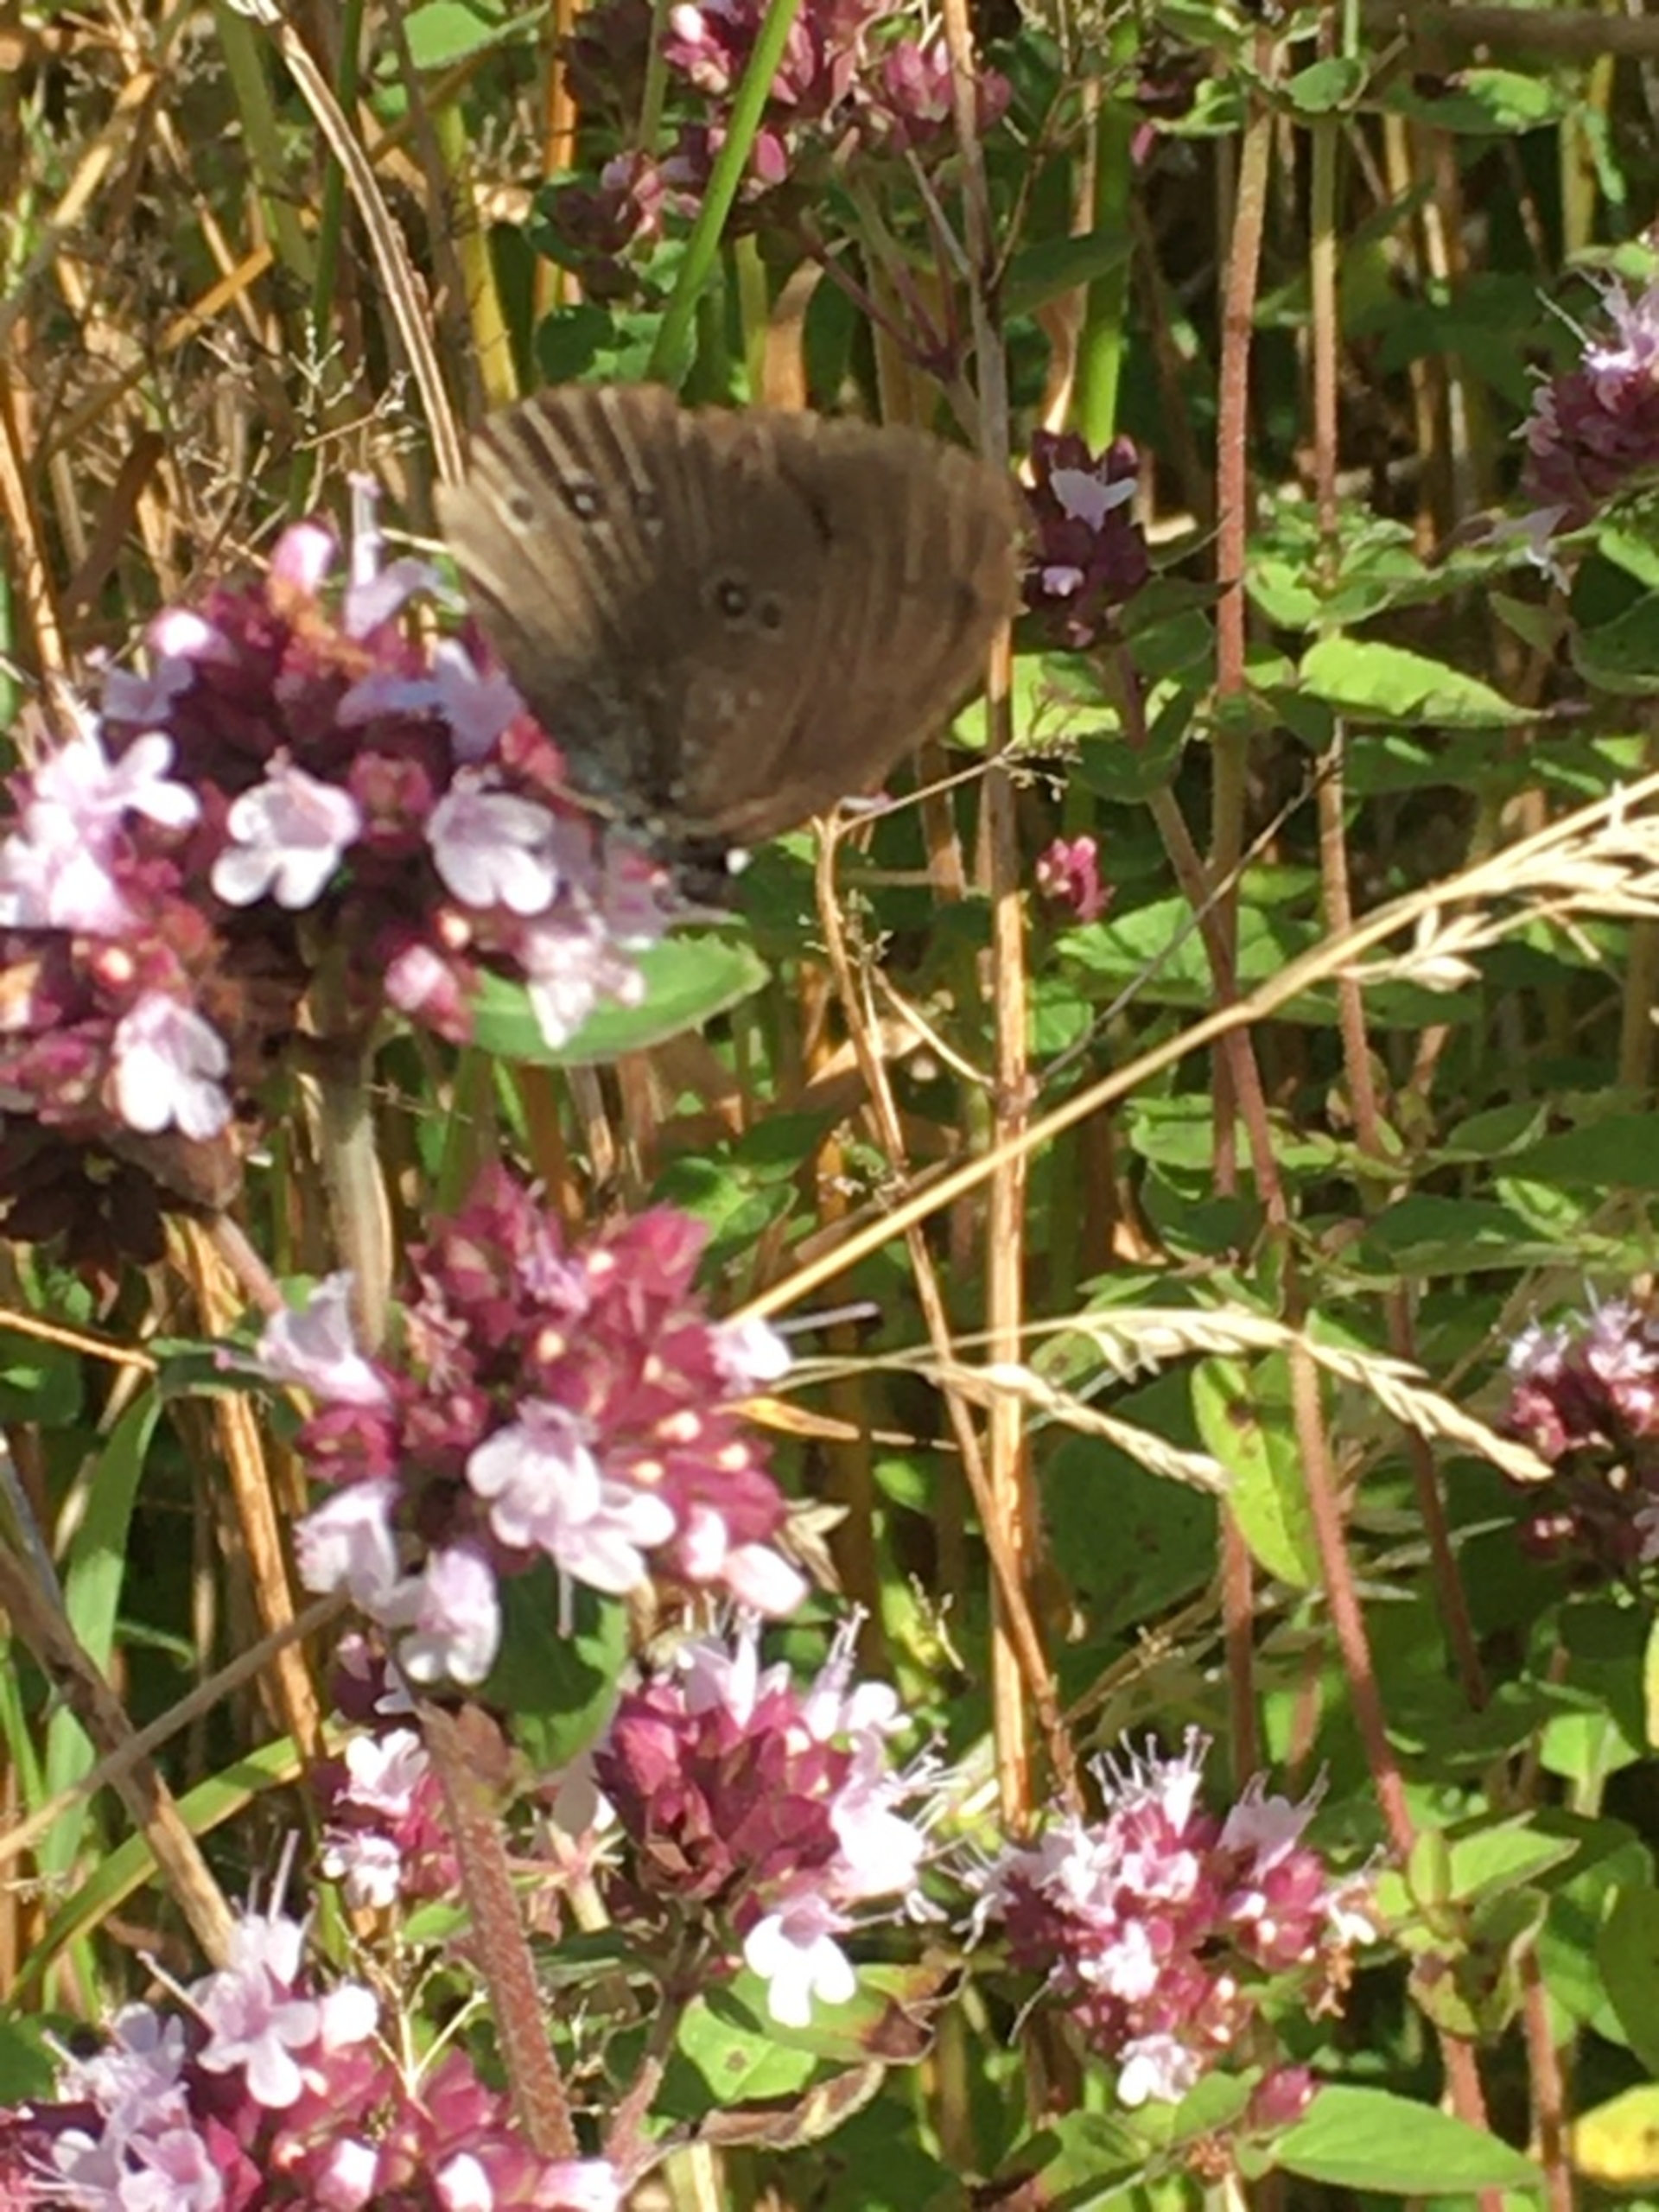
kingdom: Animalia
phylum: Arthropoda
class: Insecta
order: Lepidoptera
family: Nymphalidae
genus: Aphantopus
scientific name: Aphantopus hyperantus
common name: Engrandøje
